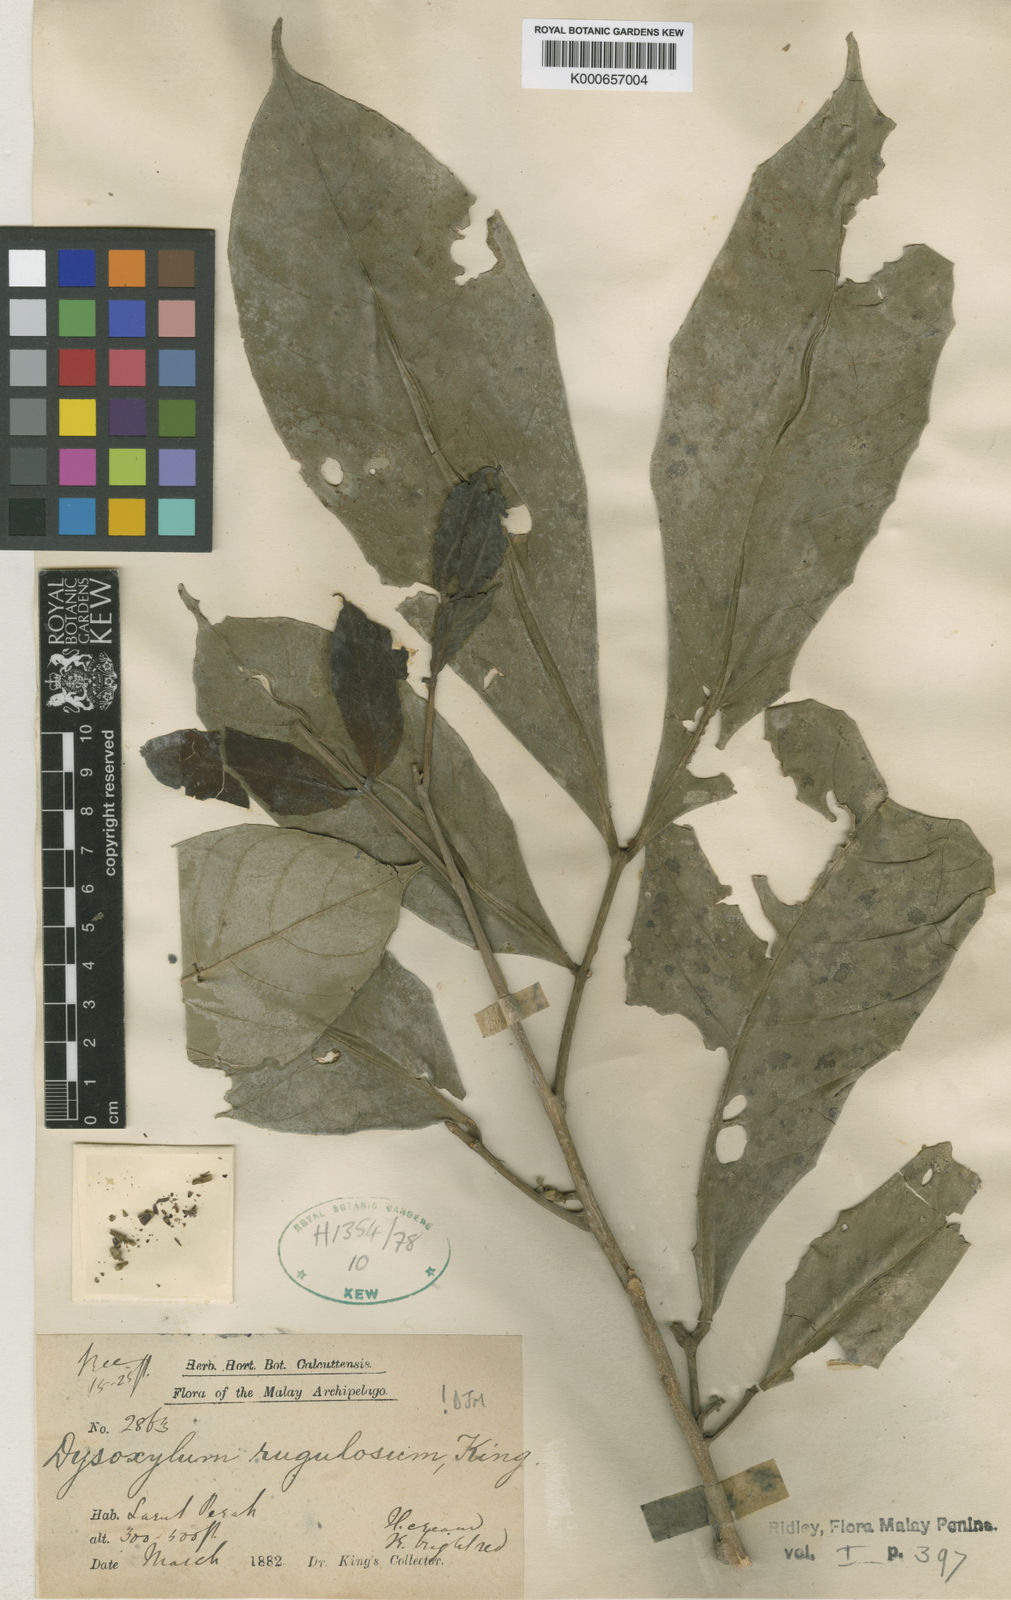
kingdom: Plantae
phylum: Tracheophyta
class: Magnoliopsida
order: Sapindales
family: Meliaceae
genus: Dysoxylum
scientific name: Dysoxylum rugulosum
